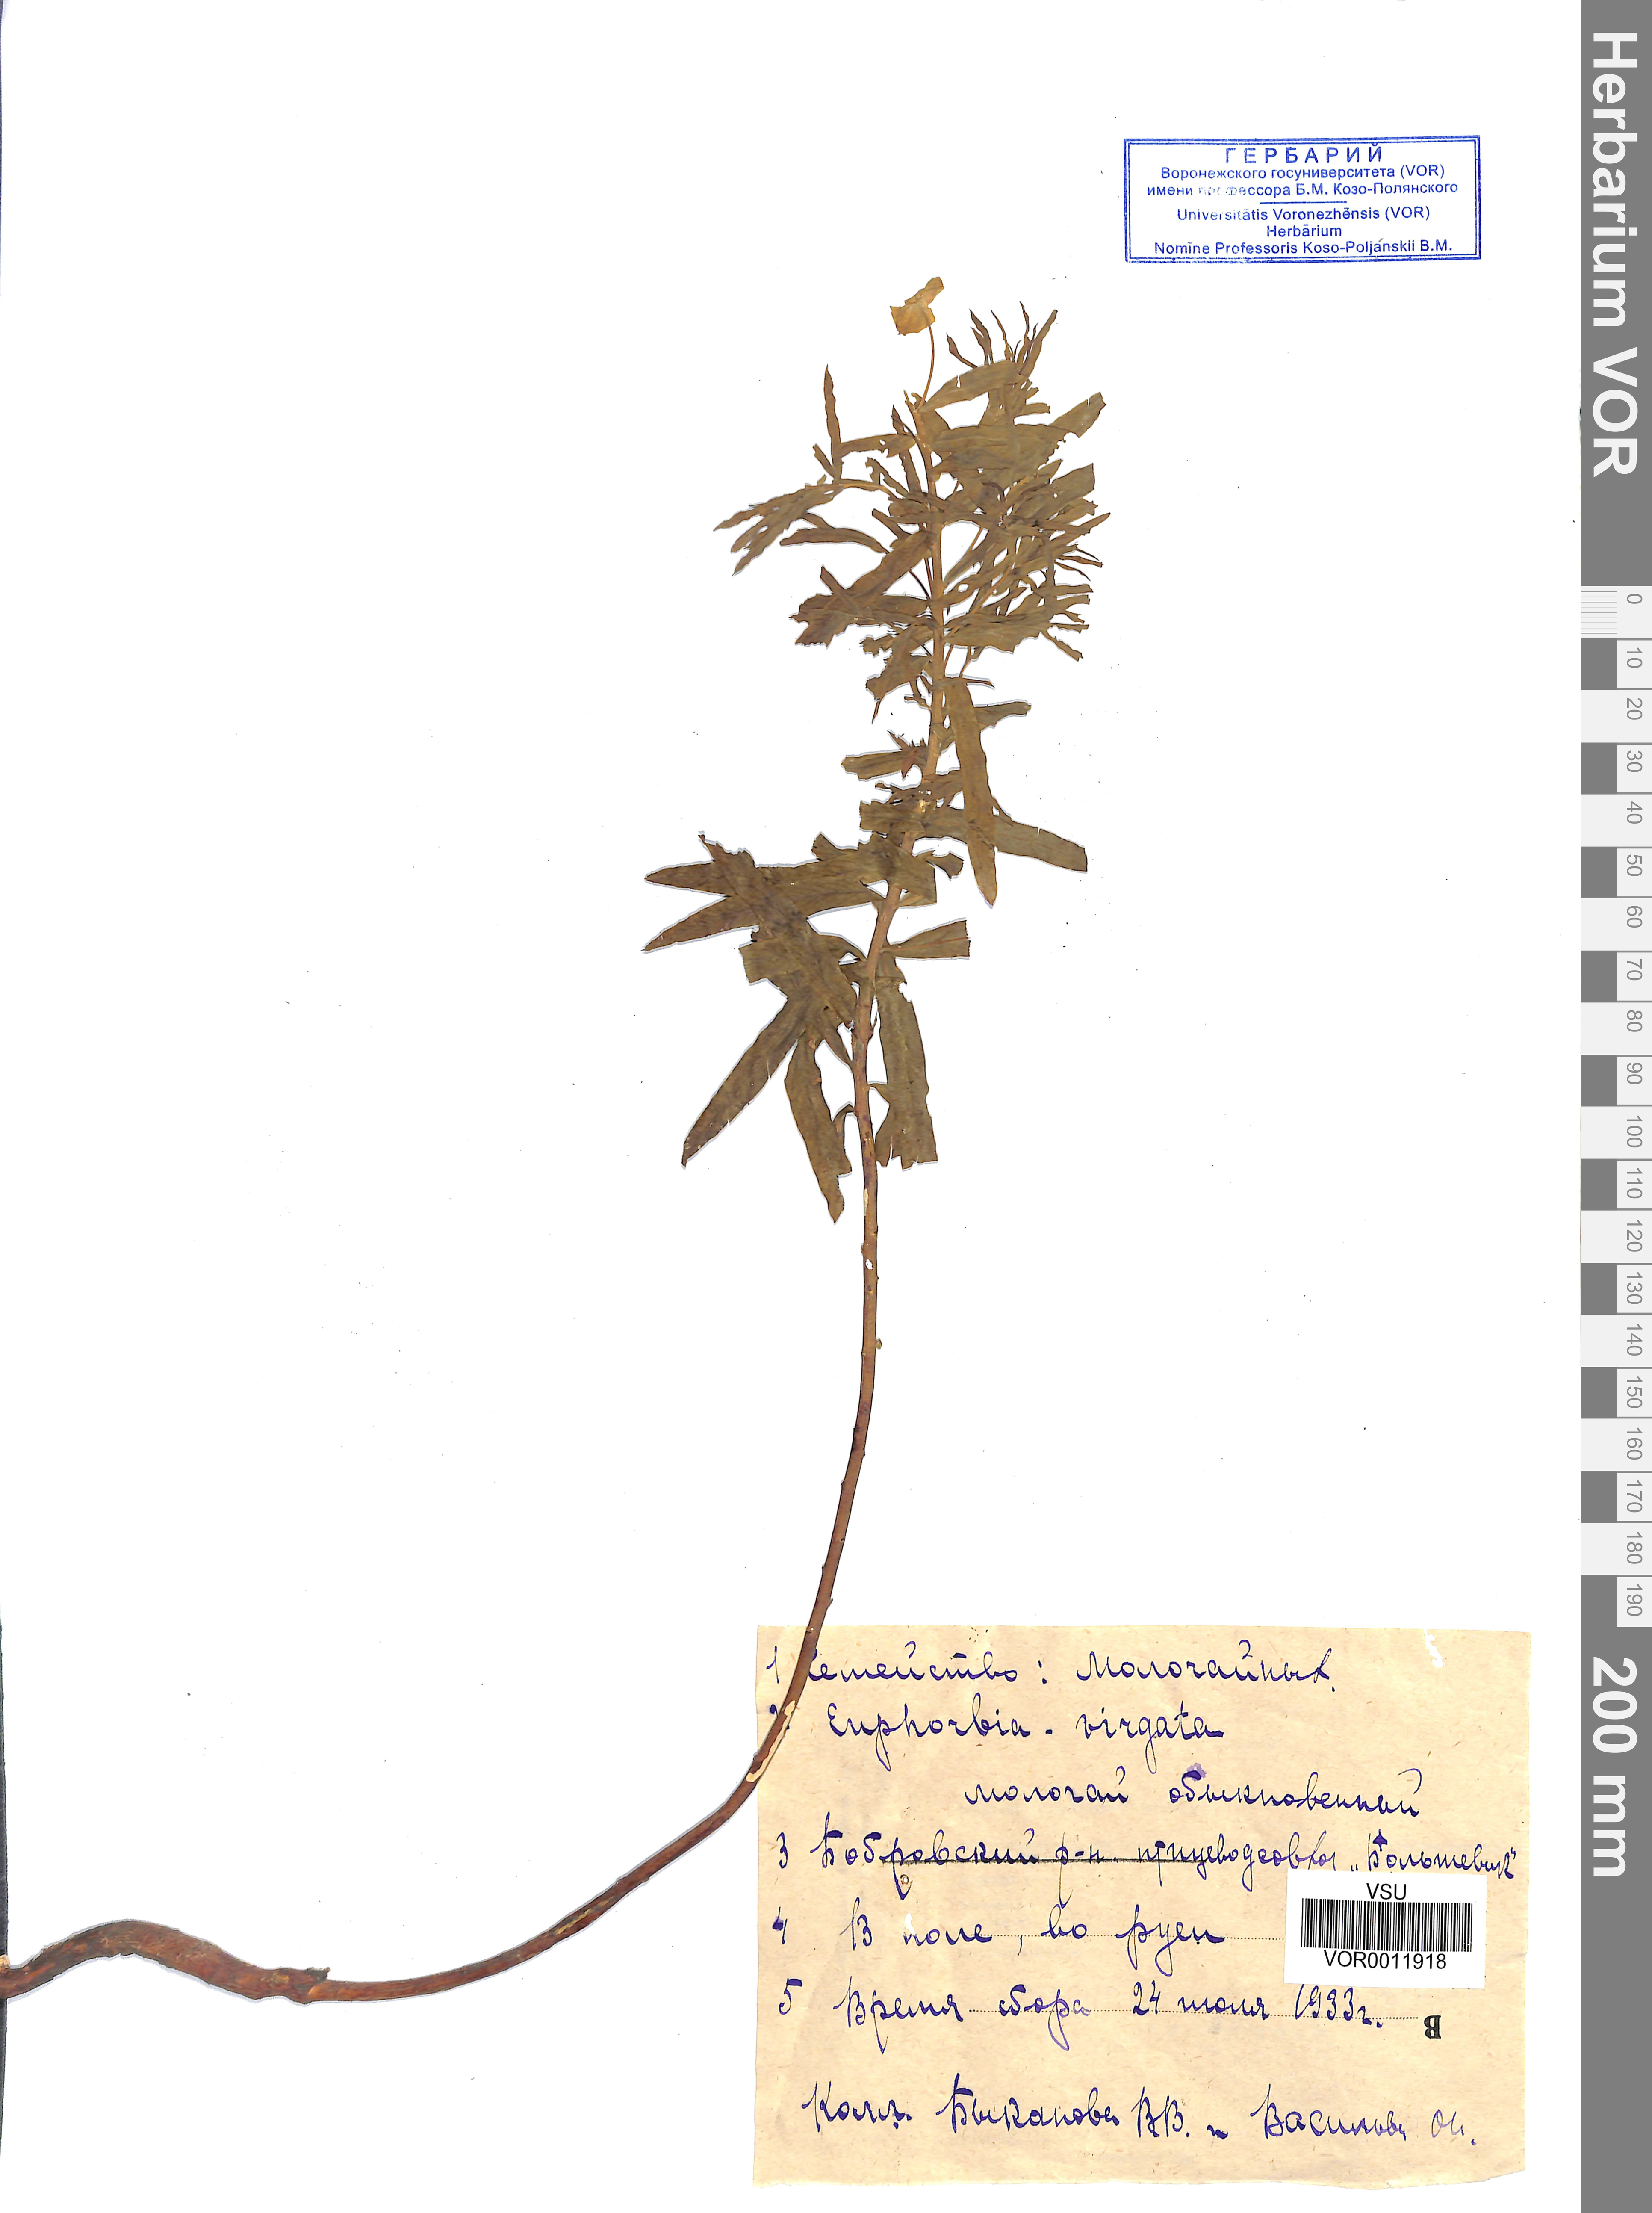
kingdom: Plantae
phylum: Tracheophyta
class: Magnoliopsida
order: Malpighiales
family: Euphorbiaceae
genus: Euphorbia
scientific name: Euphorbia virgata
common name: Leafy spurge
